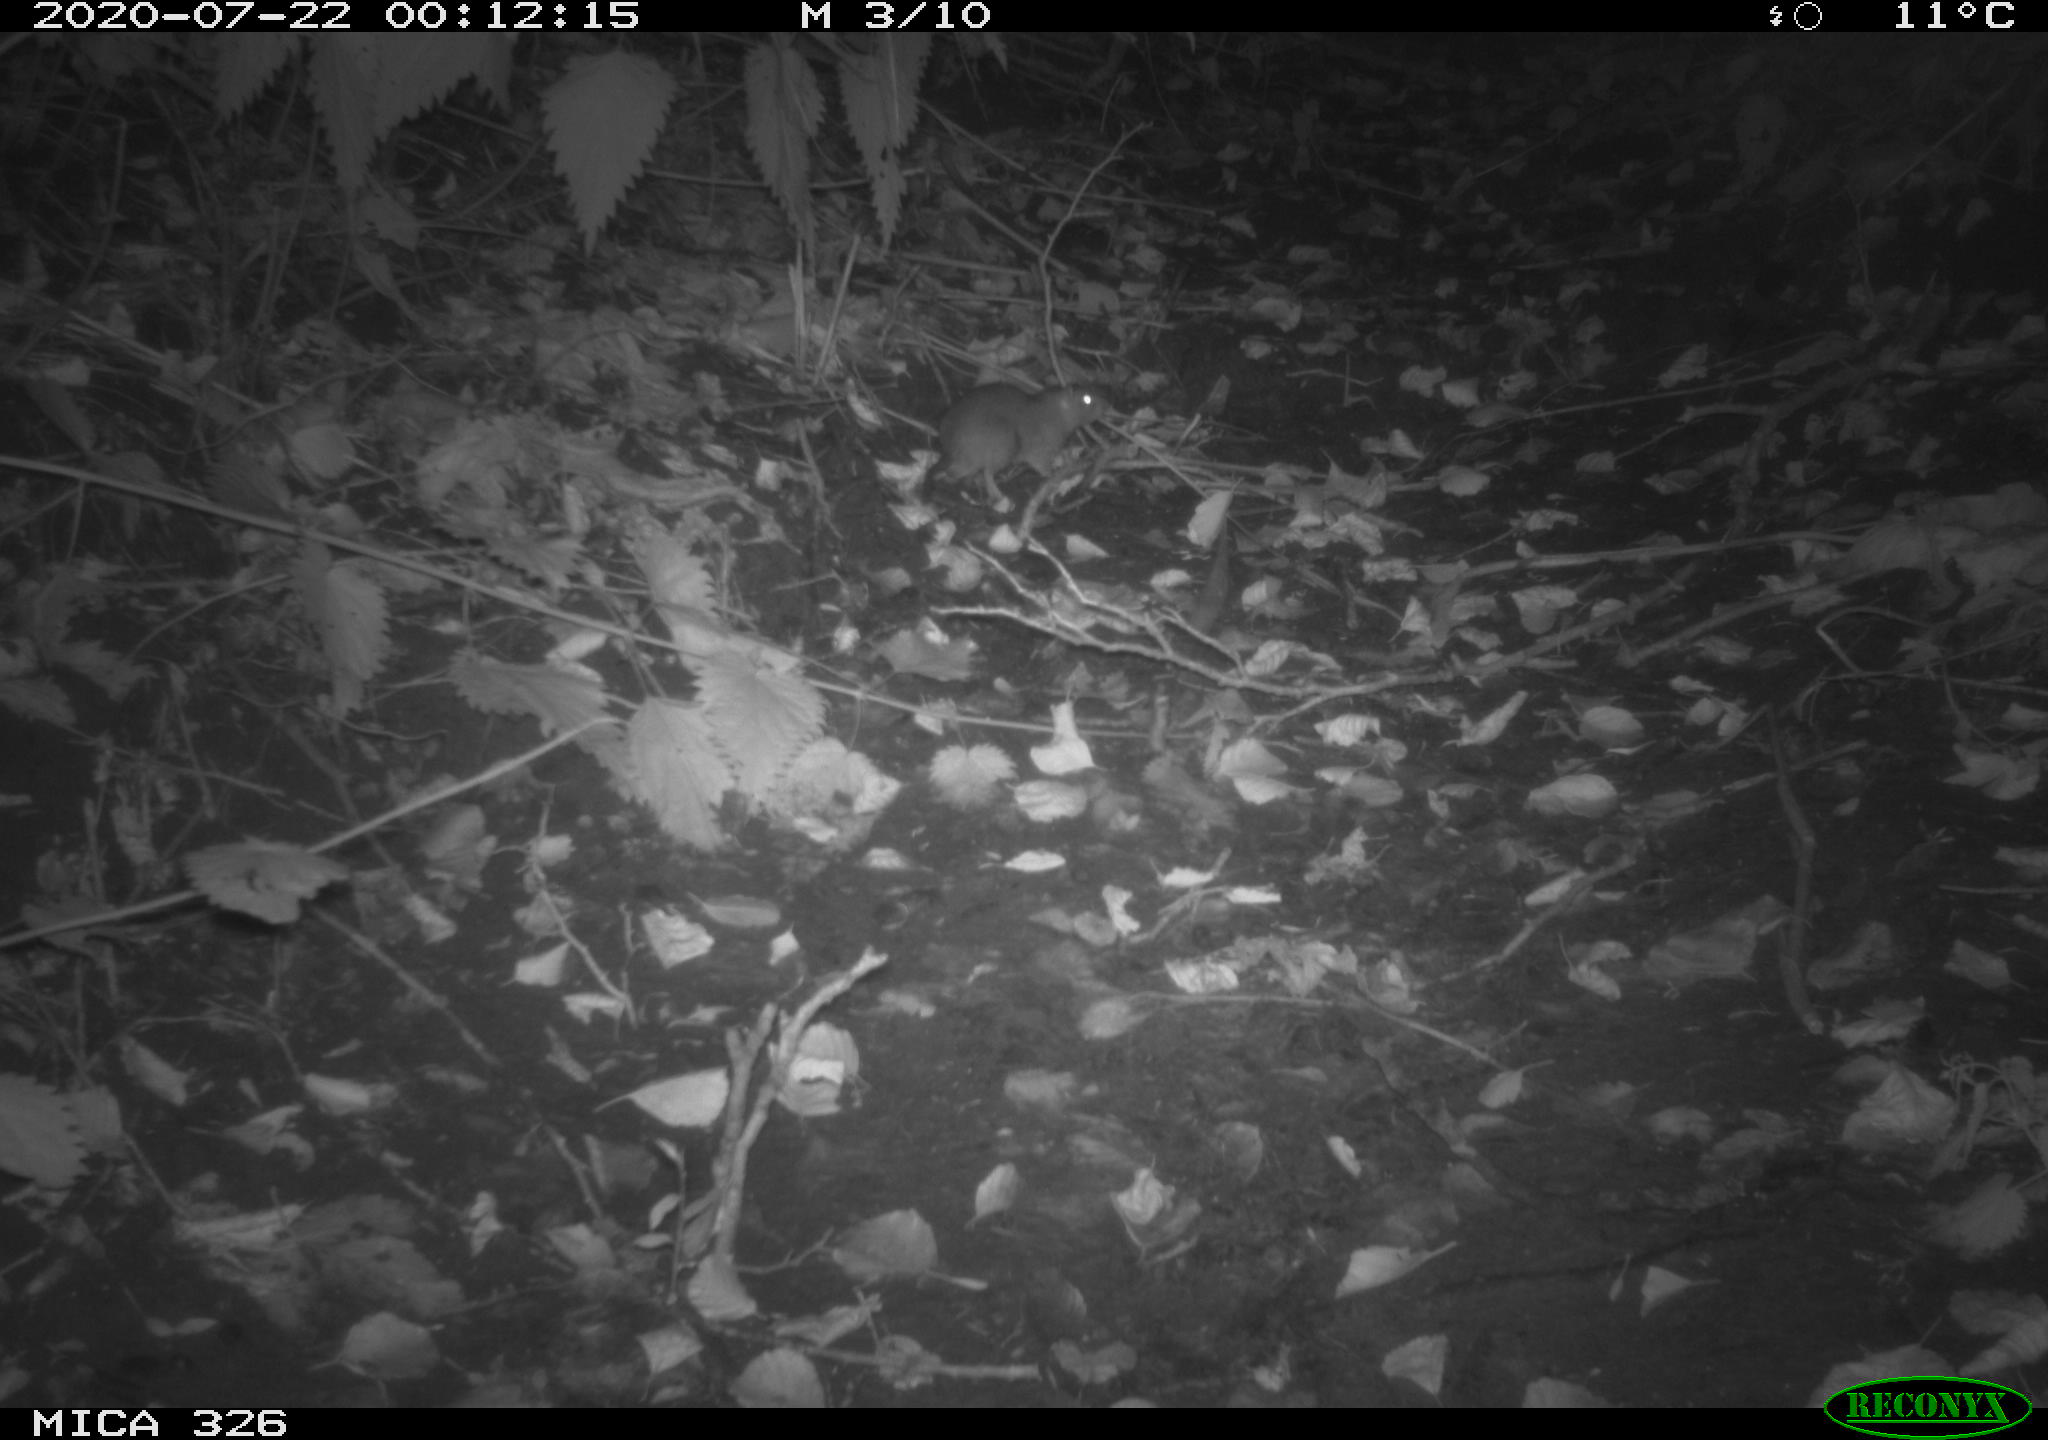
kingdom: Animalia
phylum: Chordata
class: Mammalia
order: Rodentia
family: Muridae
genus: Rattus
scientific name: Rattus norvegicus
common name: Brown rat
